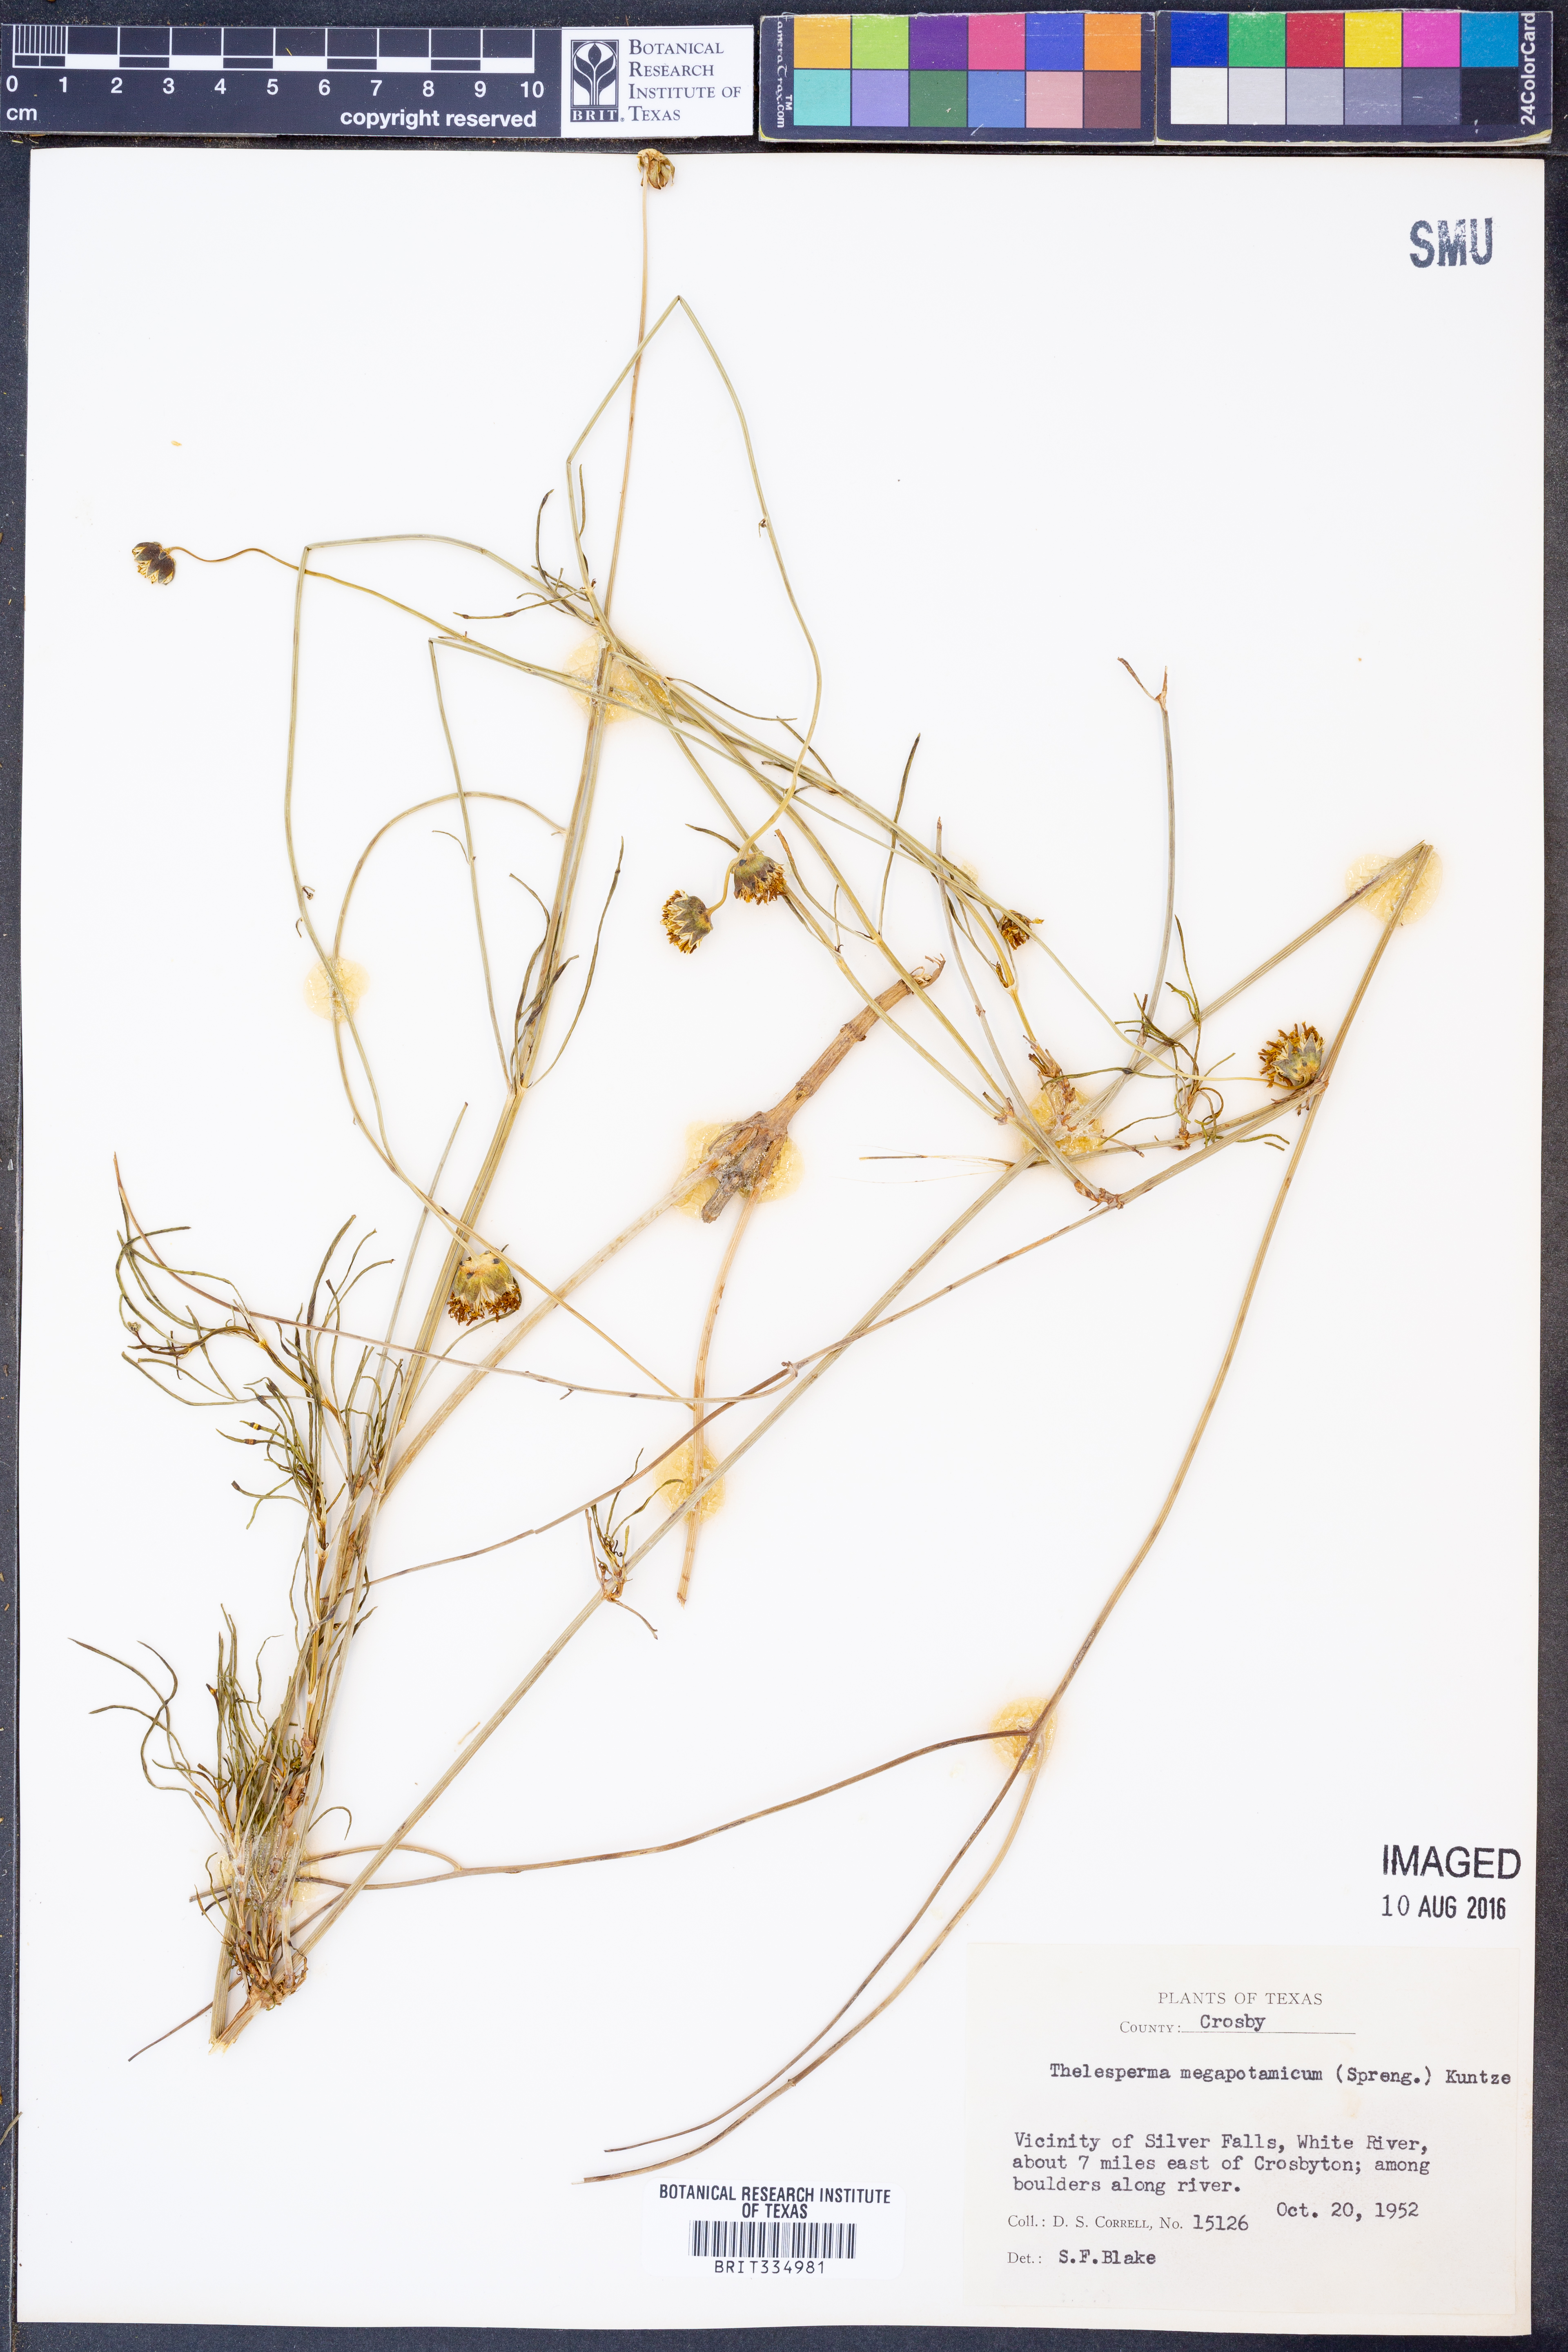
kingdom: Plantae
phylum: Tracheophyta
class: Magnoliopsida
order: Asterales
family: Asteraceae
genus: Thelesperma
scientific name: Thelesperma megapotamicum
